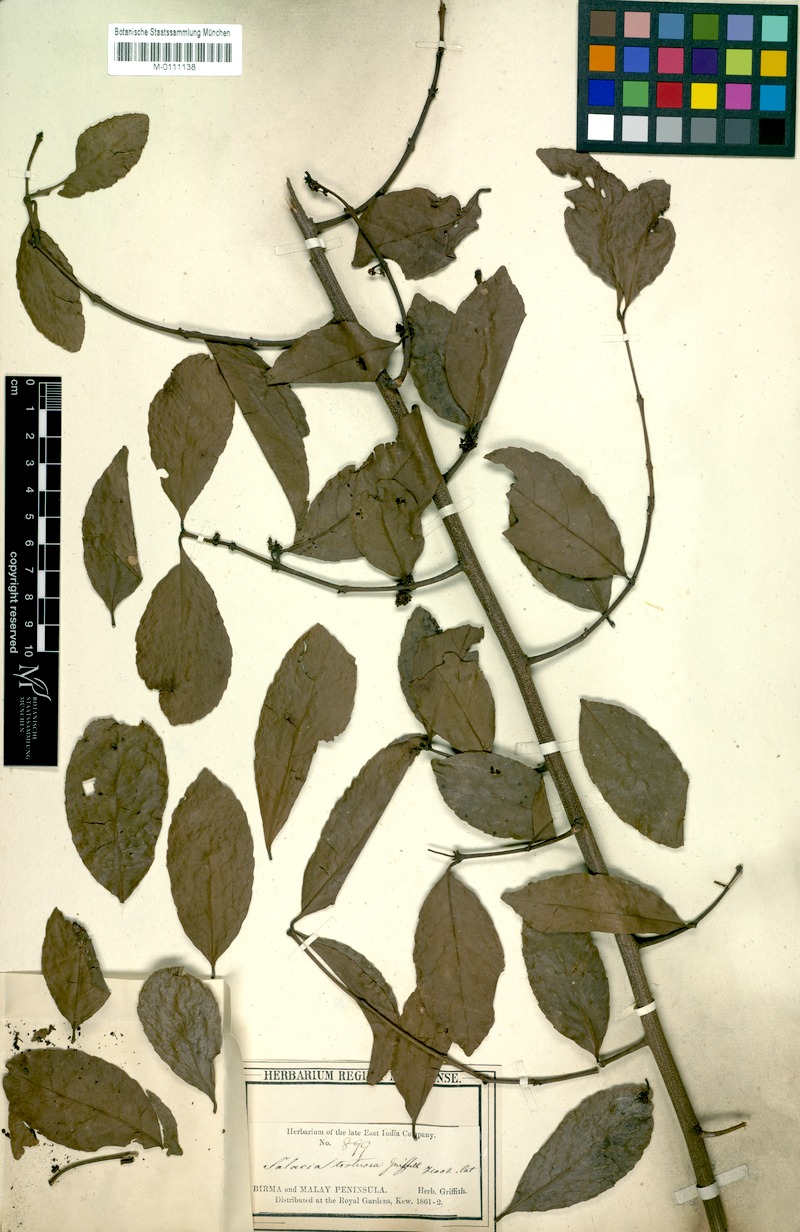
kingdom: Plantae
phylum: Tracheophyta
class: Magnoliopsida
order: Celastrales
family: Celastraceae
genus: Salacia
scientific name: Salacia tortuosa
